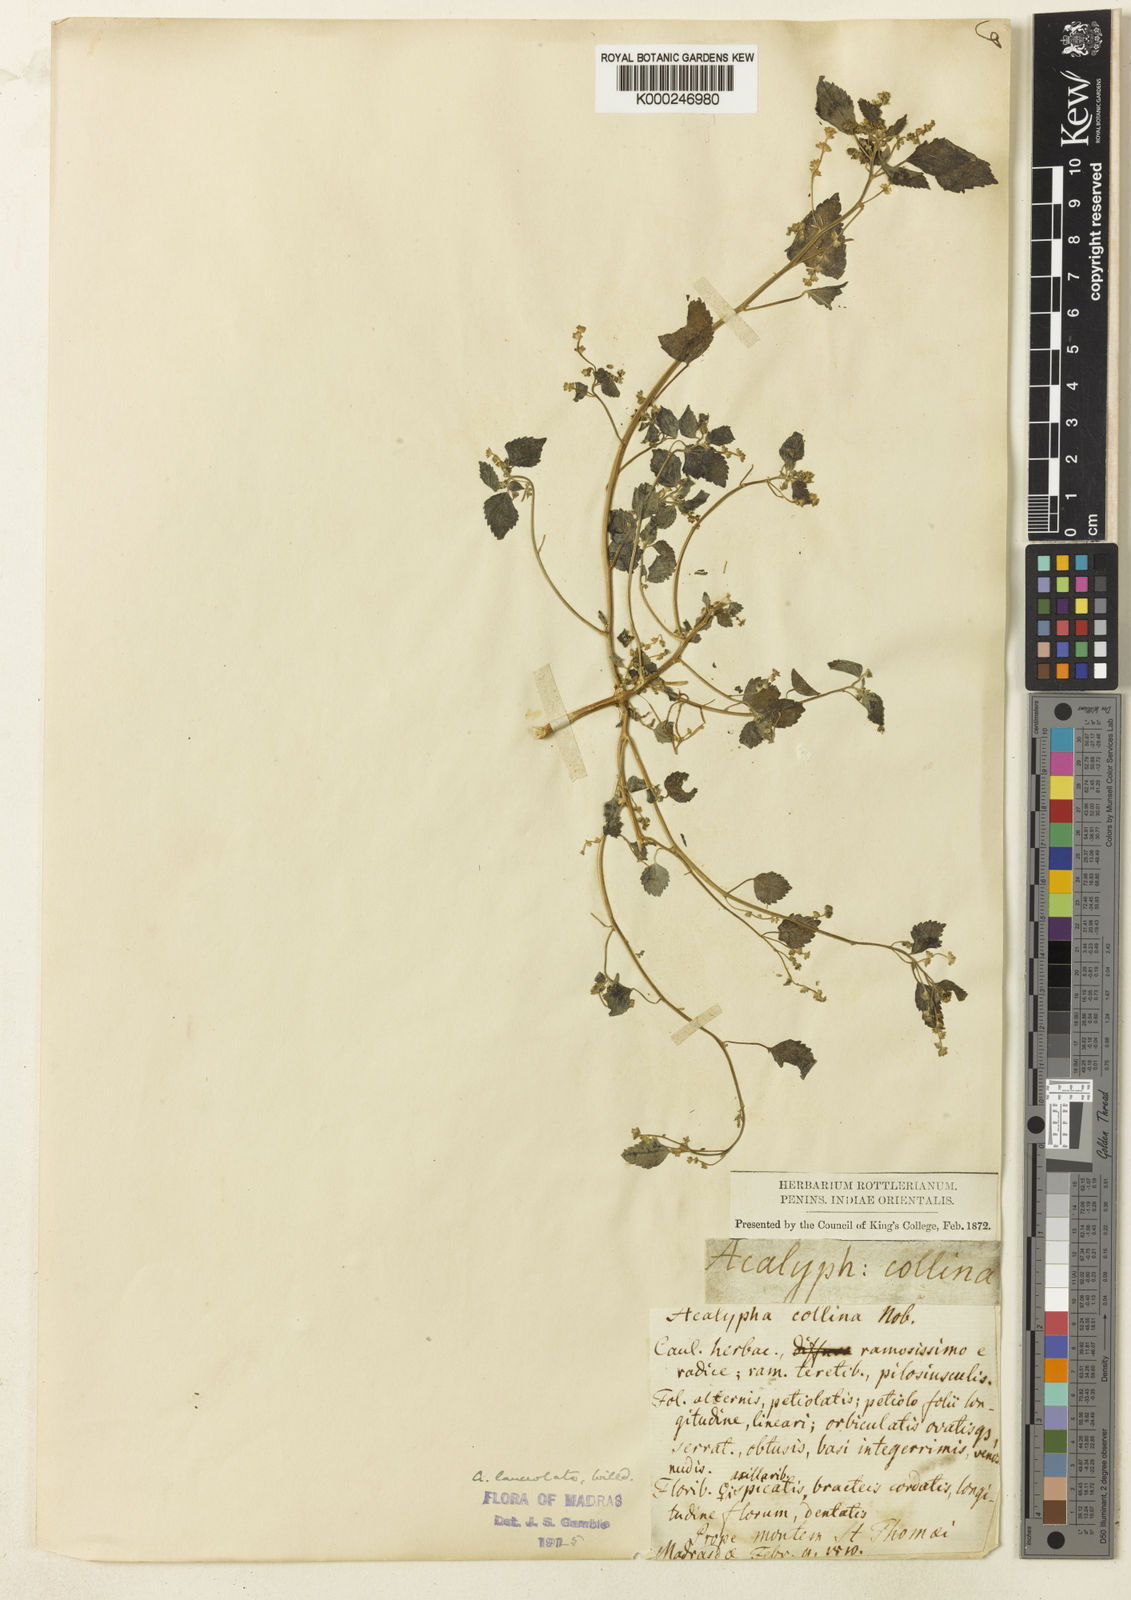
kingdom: Plantae
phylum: Tracheophyta
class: Magnoliopsida
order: Malpighiales
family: Euphorbiaceae
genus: Acalypha
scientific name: Acalypha lanceolata
